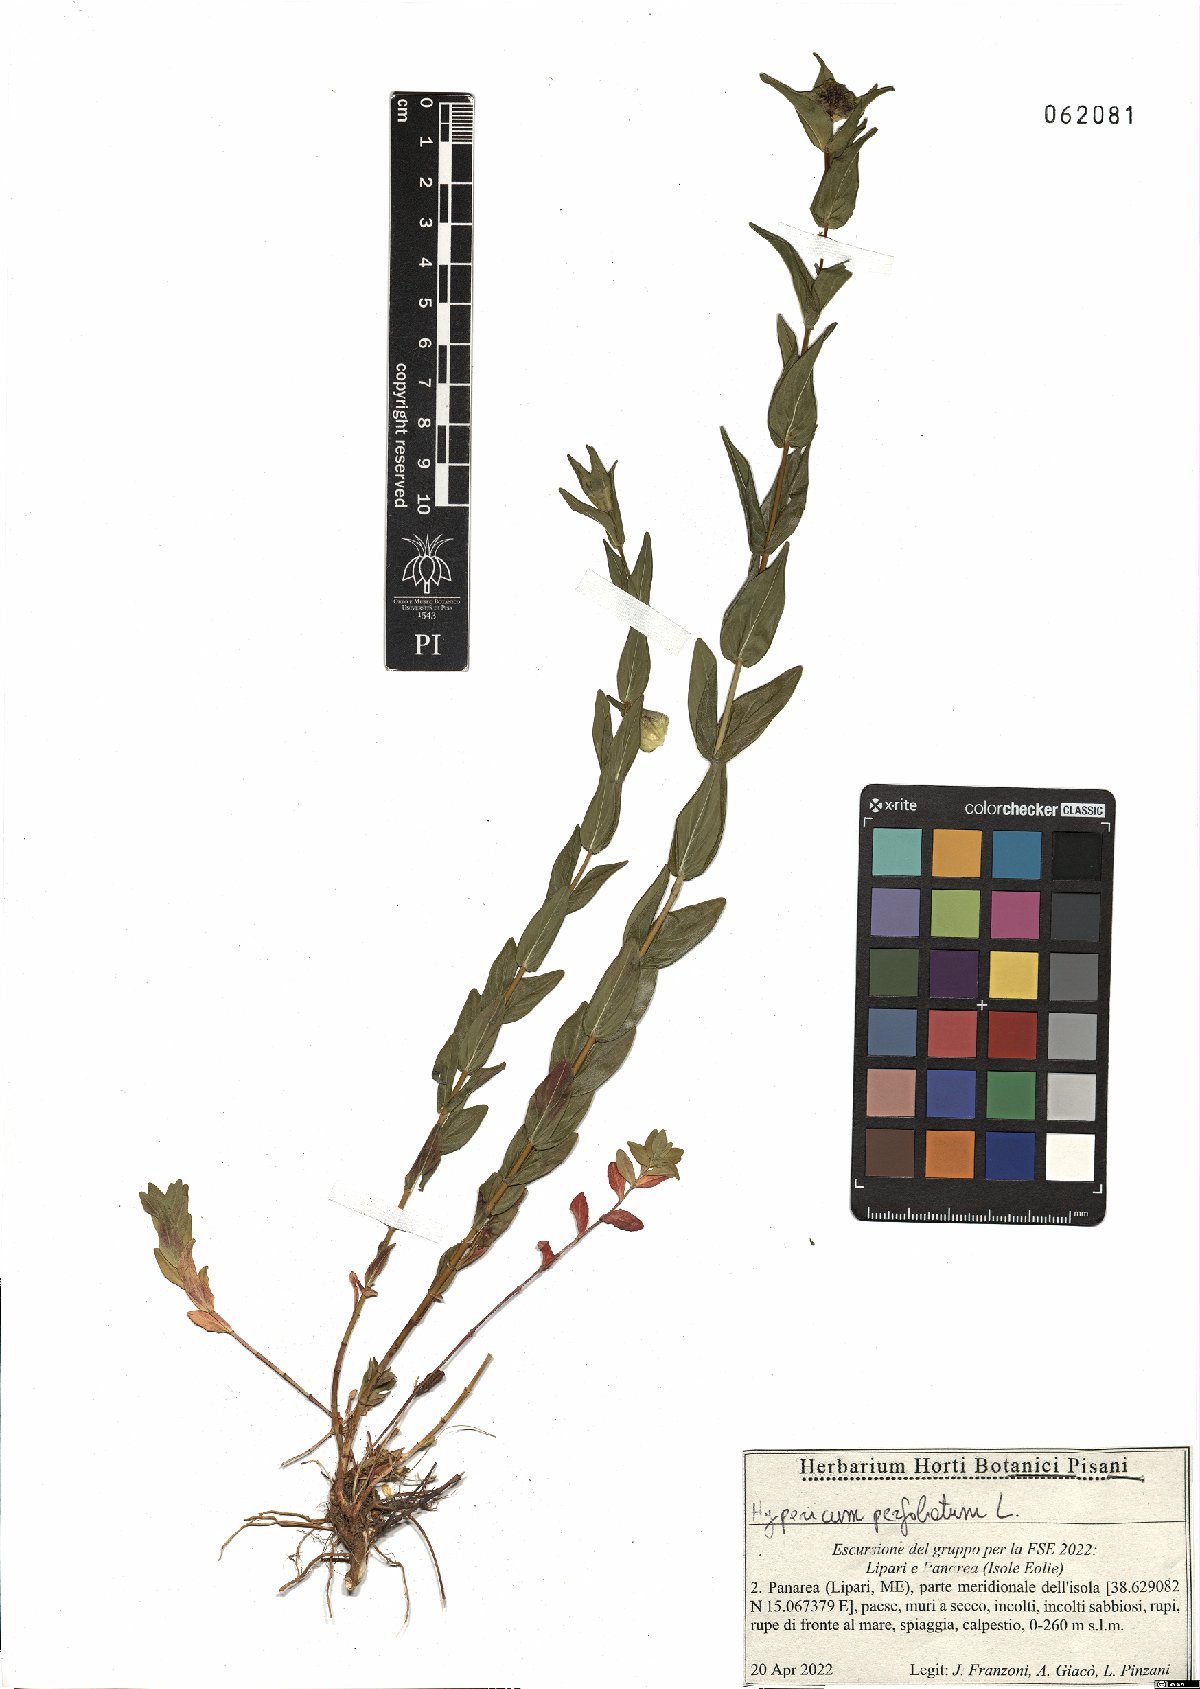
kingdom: Plantae
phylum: Tracheophyta
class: Magnoliopsida
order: Malpighiales
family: Hypericaceae
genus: Hypericum
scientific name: Hypericum perfoliatum
